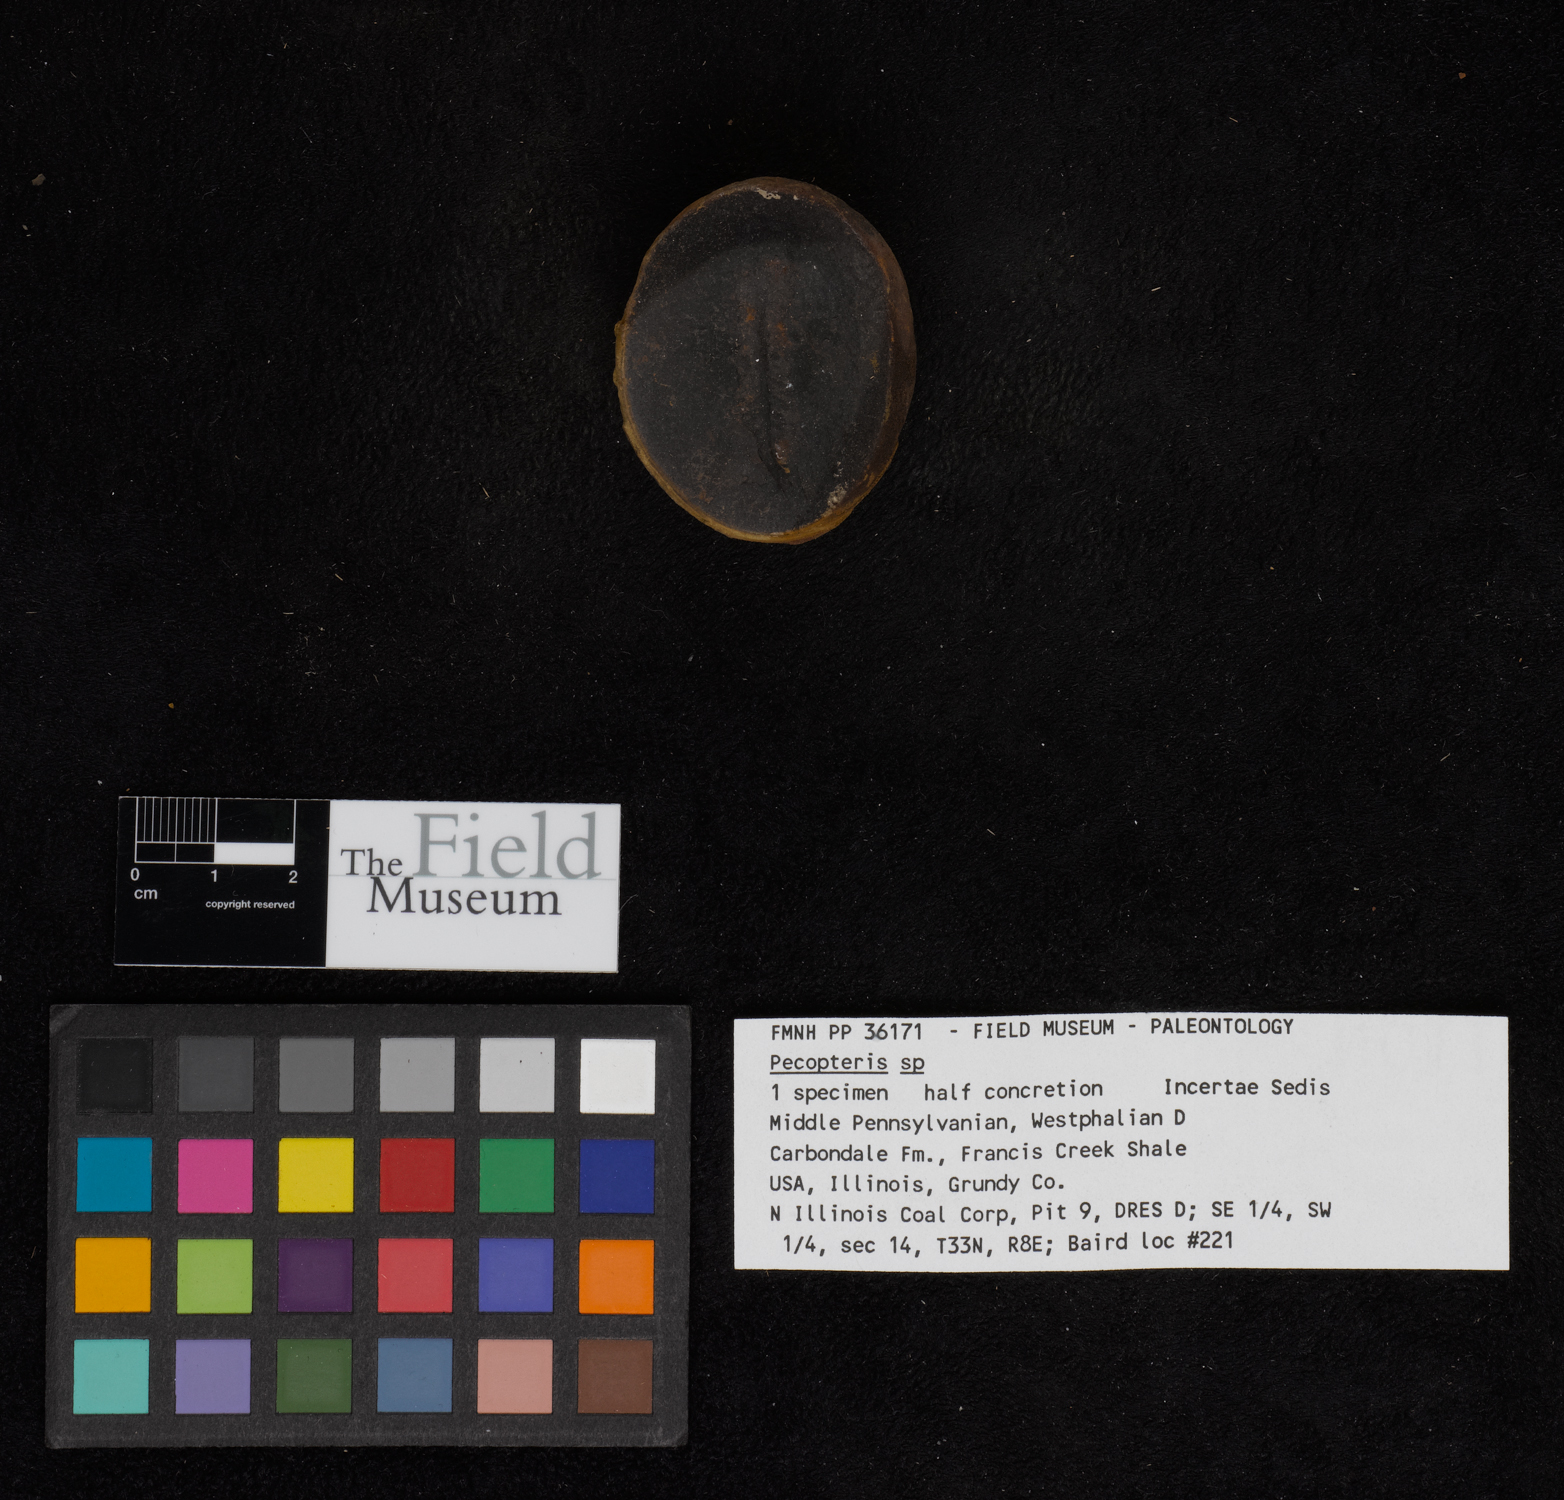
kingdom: Plantae
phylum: Tracheophyta
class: Polypodiopsida
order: Marattiales
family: Asterothecaceae
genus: Pecopteris
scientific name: Pecopteris
